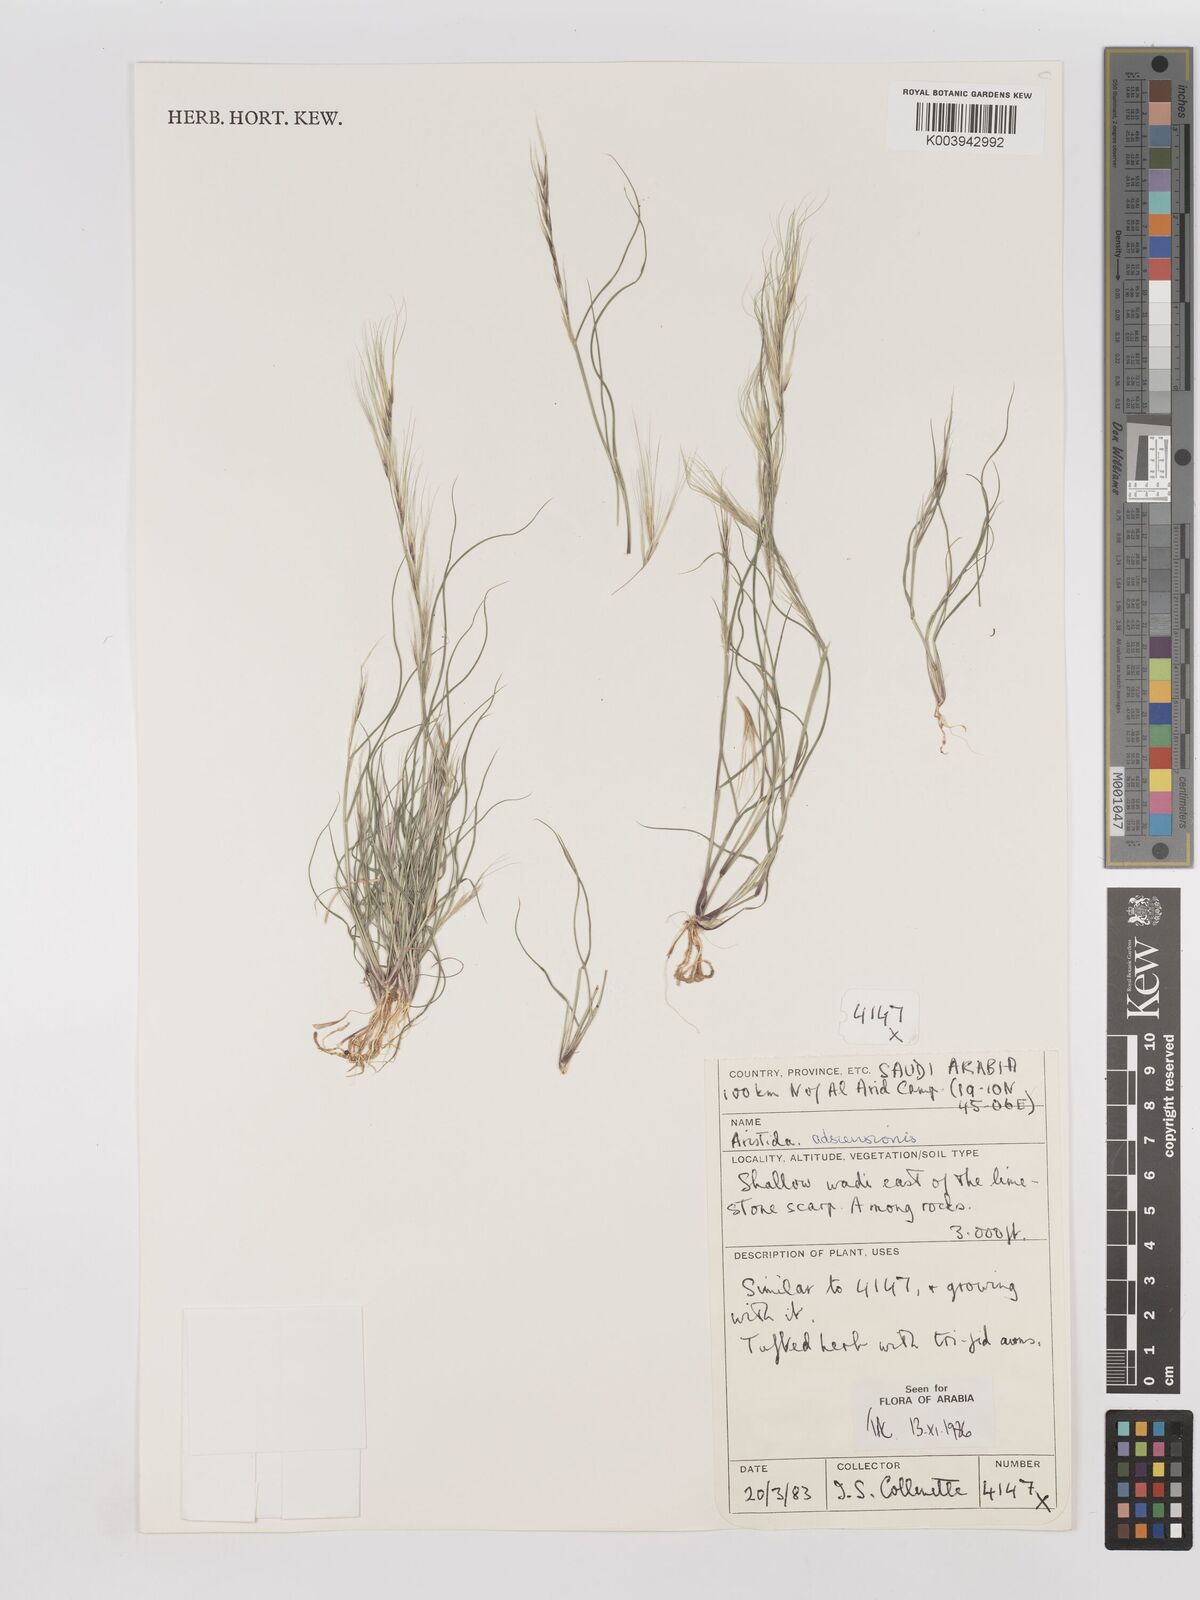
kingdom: Plantae
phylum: Tracheophyta
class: Liliopsida
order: Poales
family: Poaceae
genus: Aristida
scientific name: Aristida adscensionis
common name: Sixweeks threeawn
